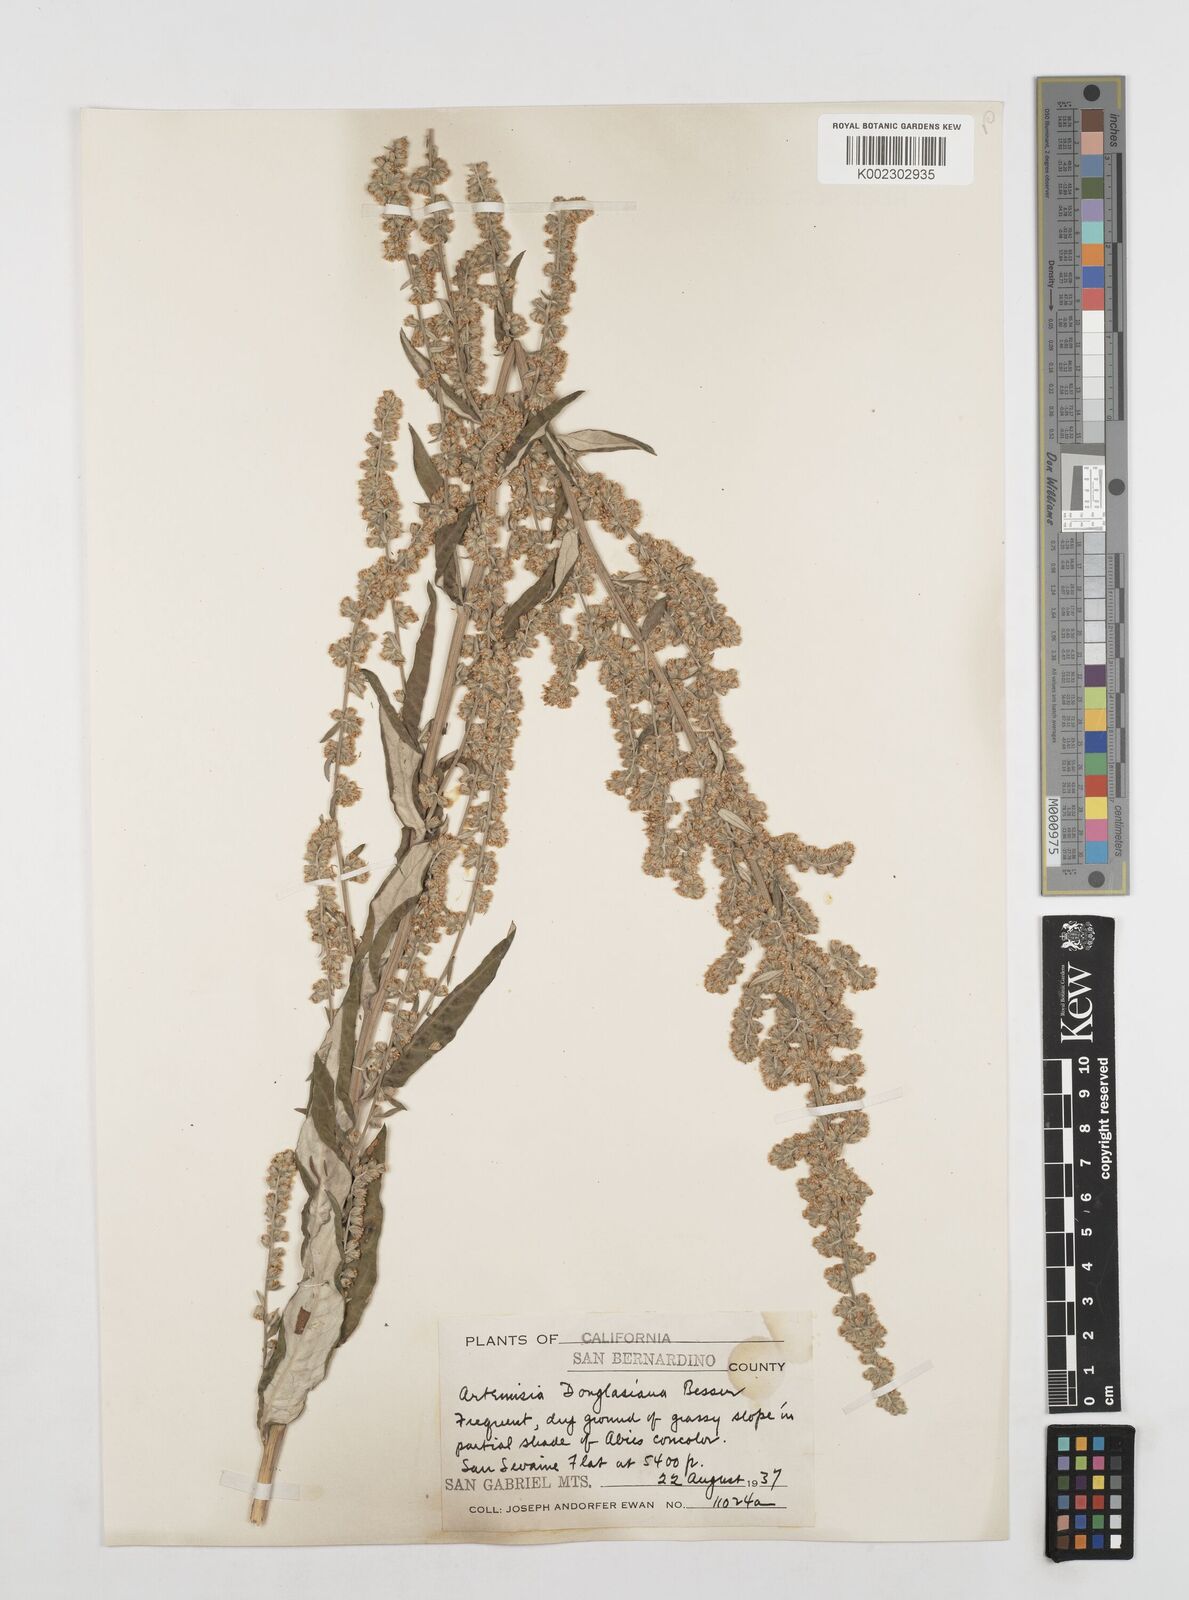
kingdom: Plantae
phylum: Tracheophyta
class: Magnoliopsida
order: Asterales
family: Asteraceae
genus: Artemisia
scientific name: Artemisia douglasiana
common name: Northwest mugwort
